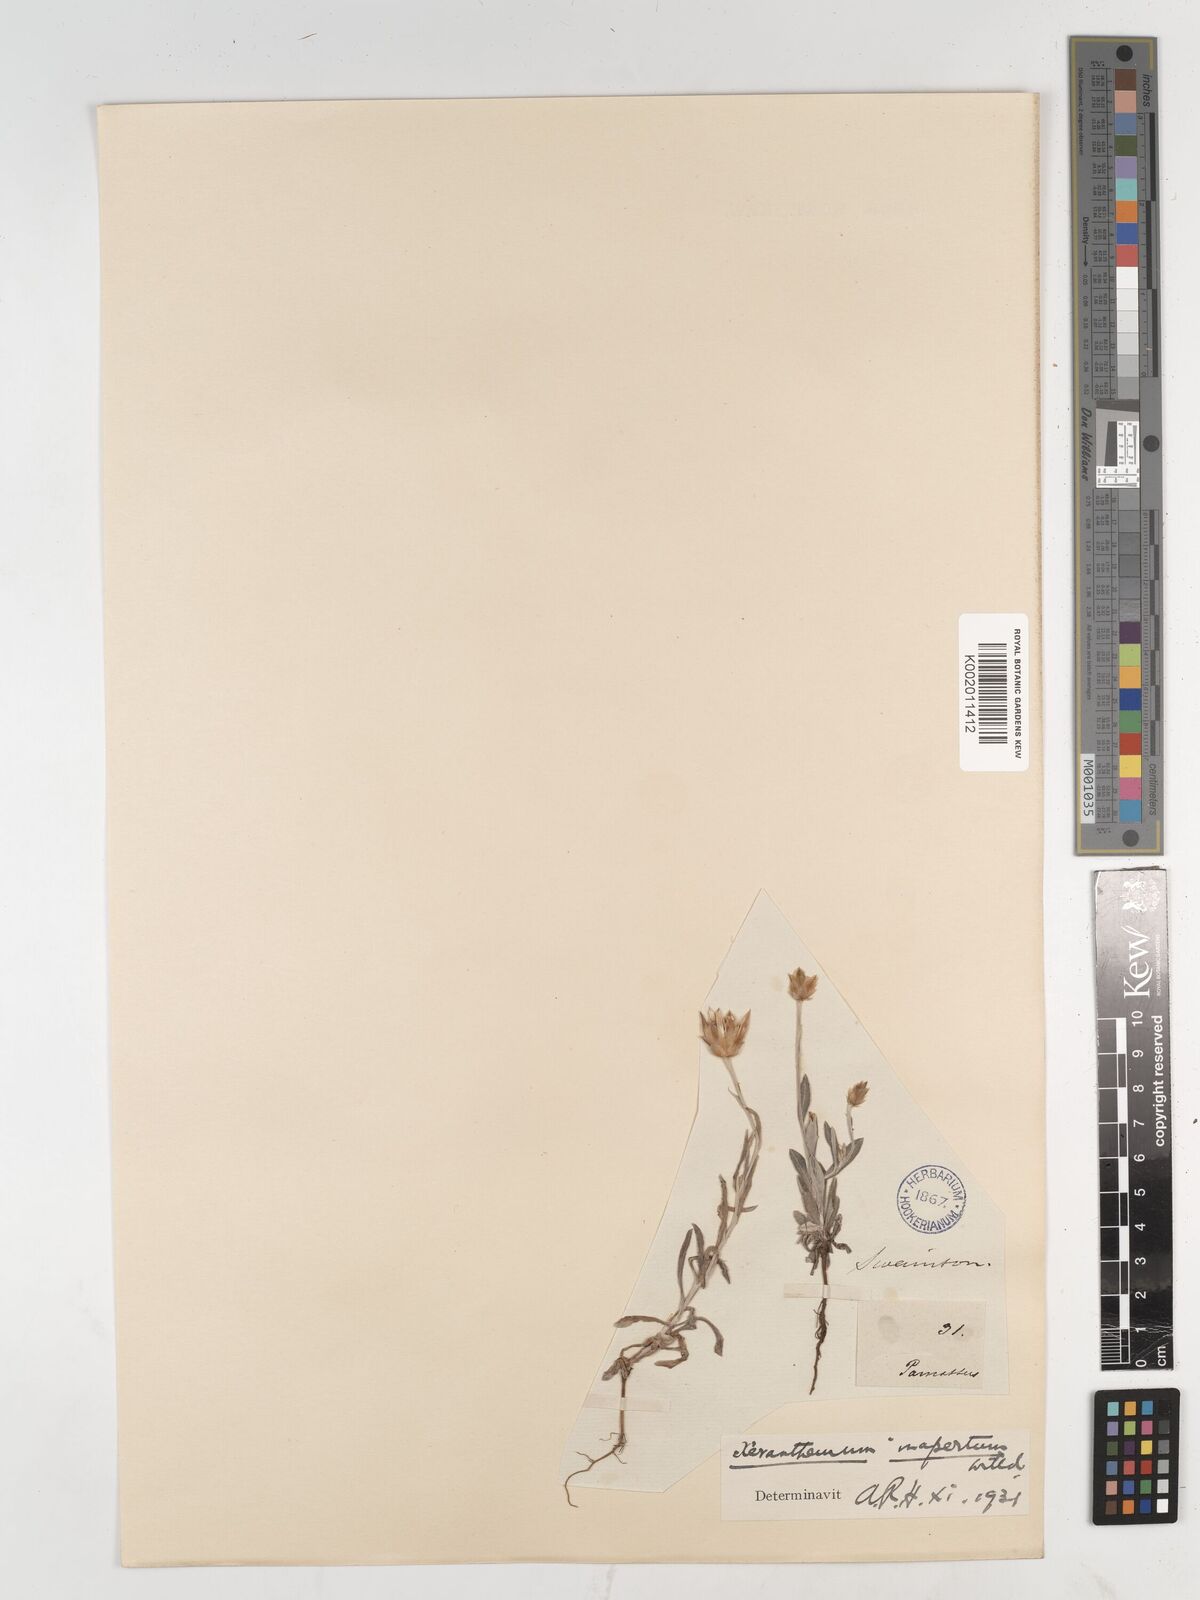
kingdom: Plantae
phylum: Tracheophyta
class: Magnoliopsida
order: Asterales
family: Asteraceae
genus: Xeranthemum
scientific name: Xeranthemum inapertum
